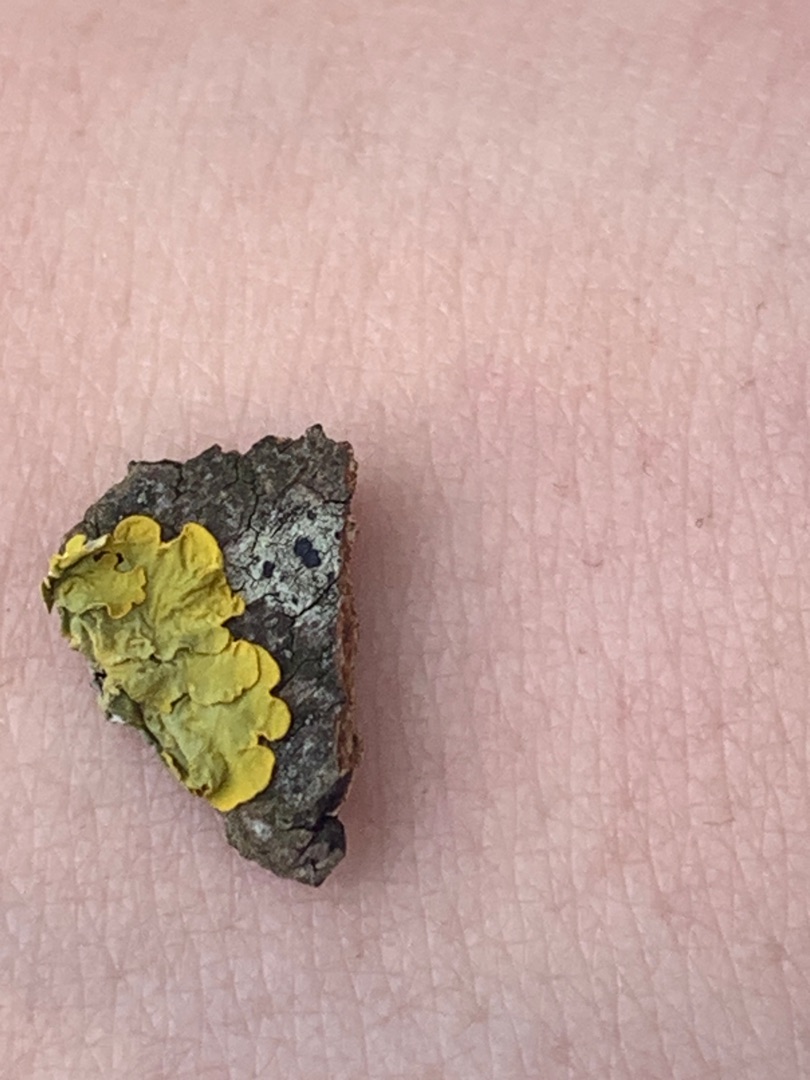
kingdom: Fungi
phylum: Ascomycota
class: Lecanoromycetes
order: Teloschistales
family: Teloschistaceae
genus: Xanthoria
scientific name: Xanthoria parietina
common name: Almindelig væggelav
